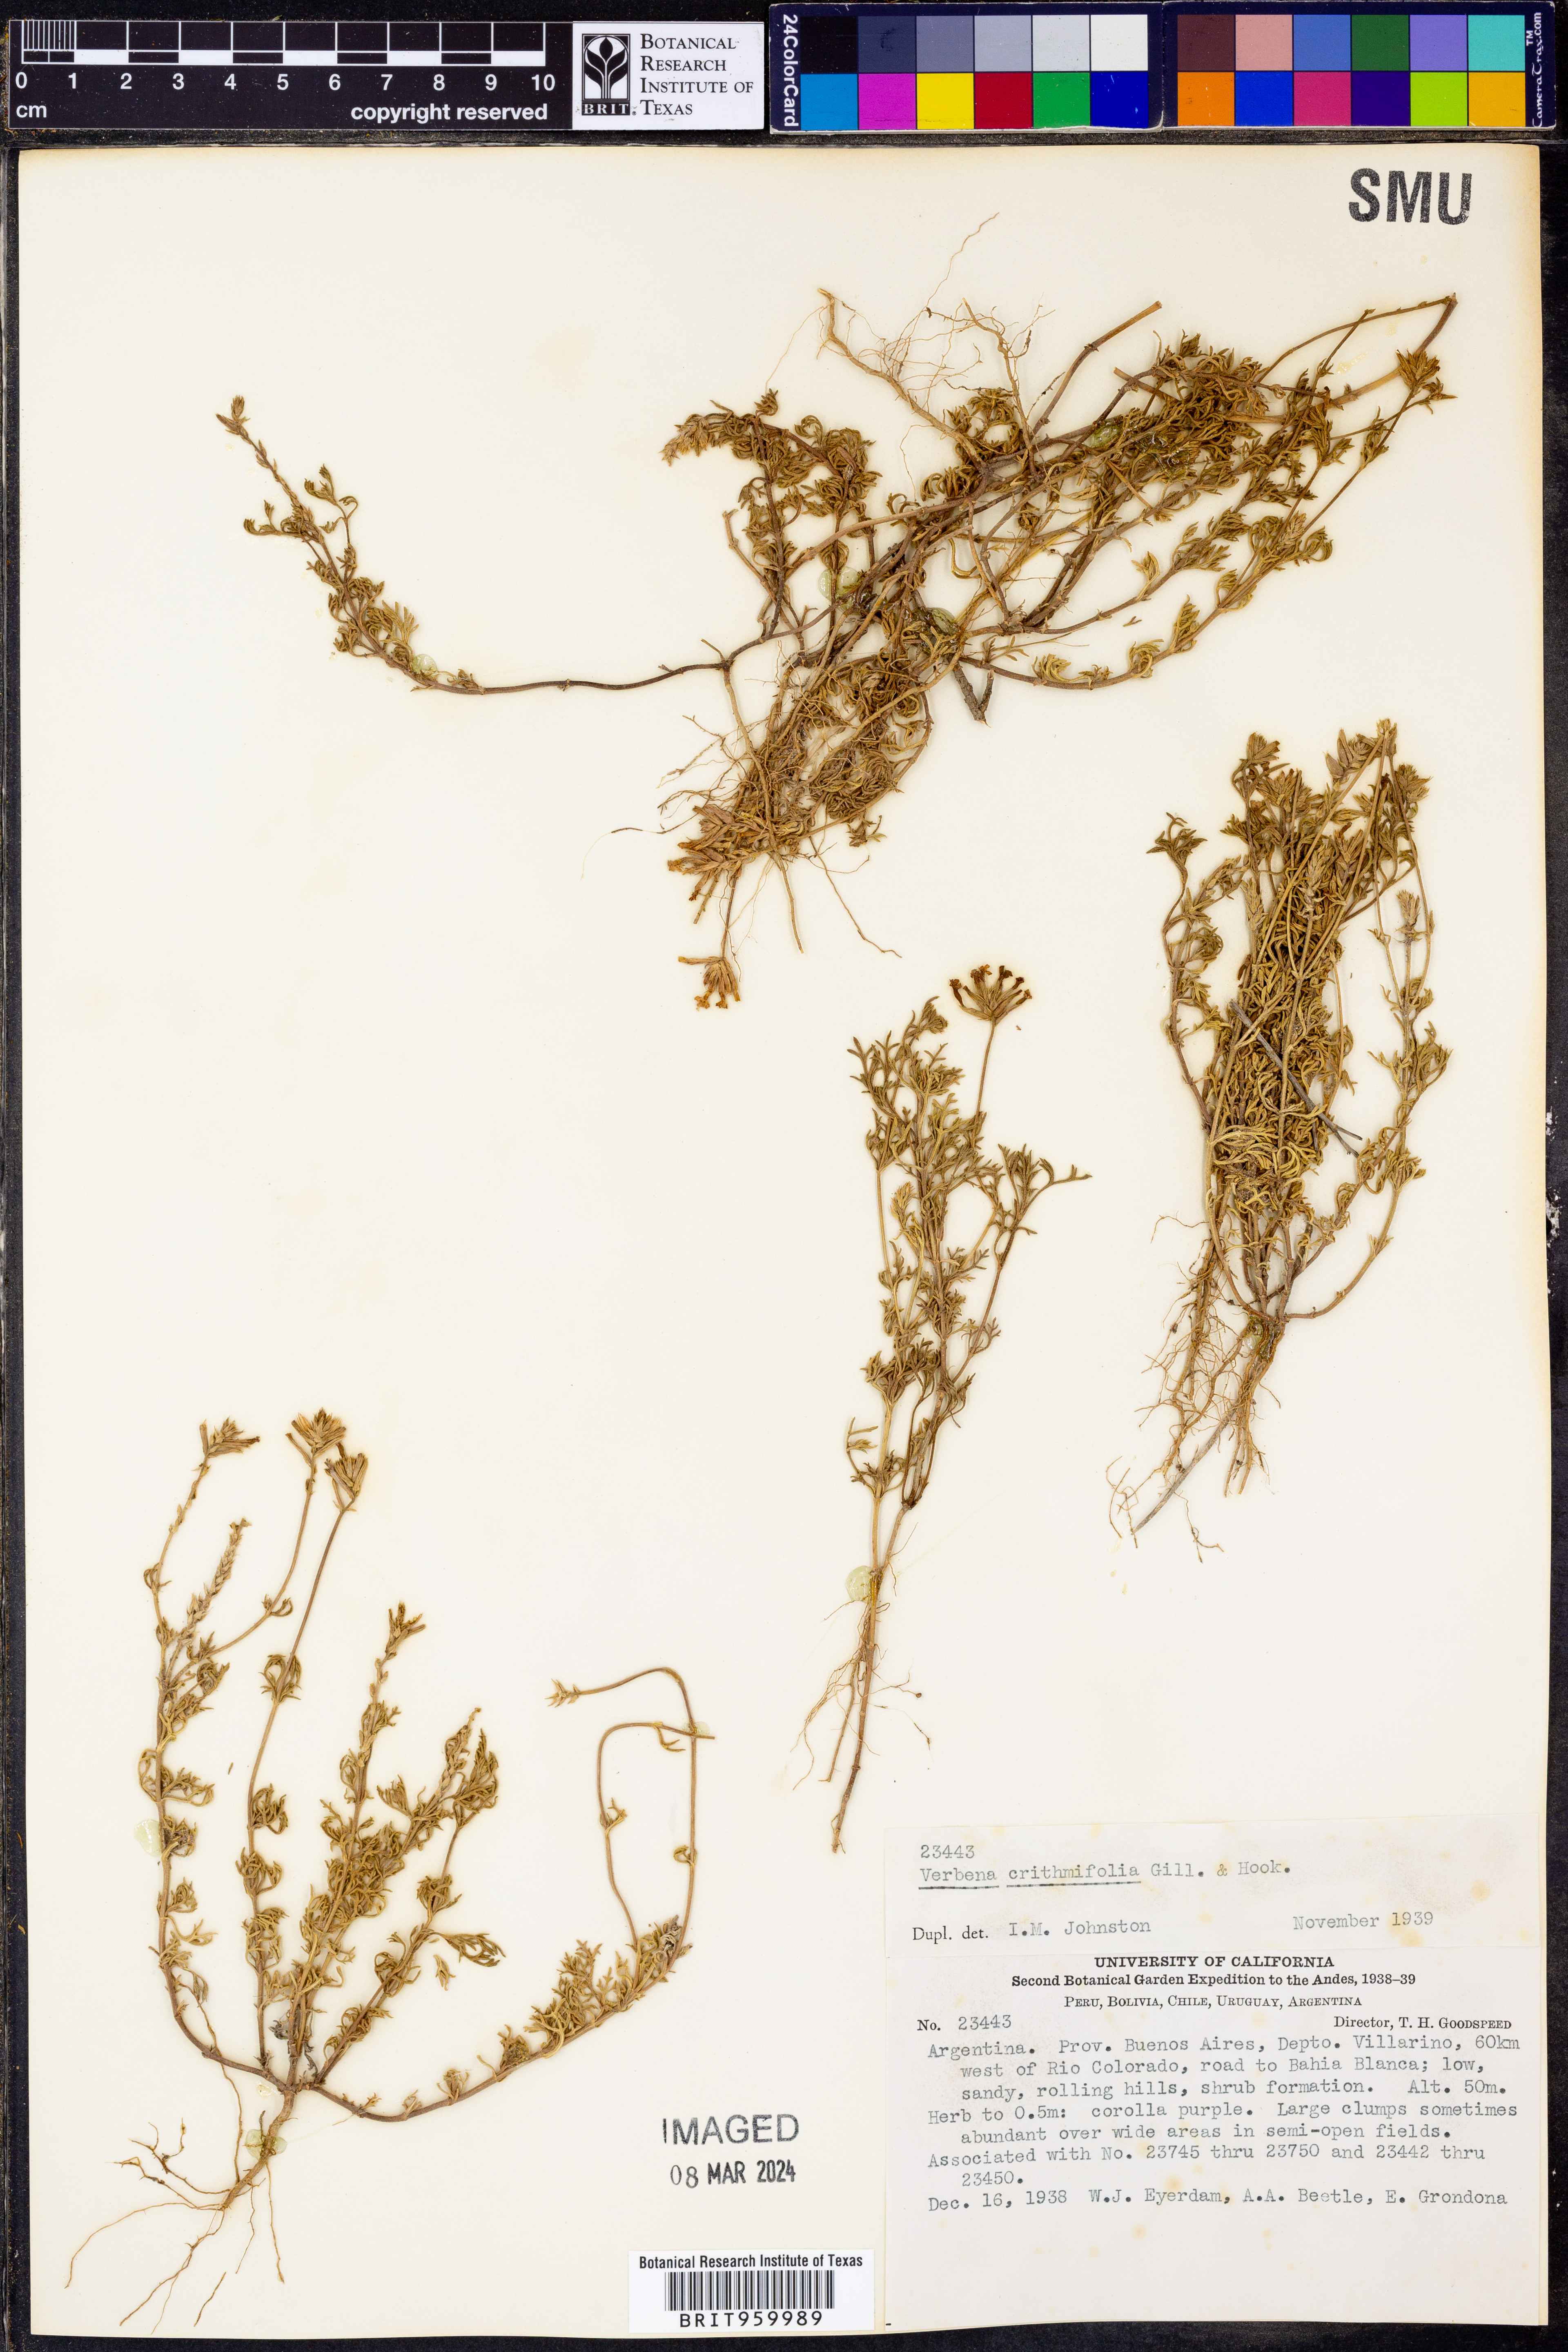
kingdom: Plantae
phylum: Tracheophyta
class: Magnoliopsida
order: Lamiales
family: Verbenaceae
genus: Verbena
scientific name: Verbena
